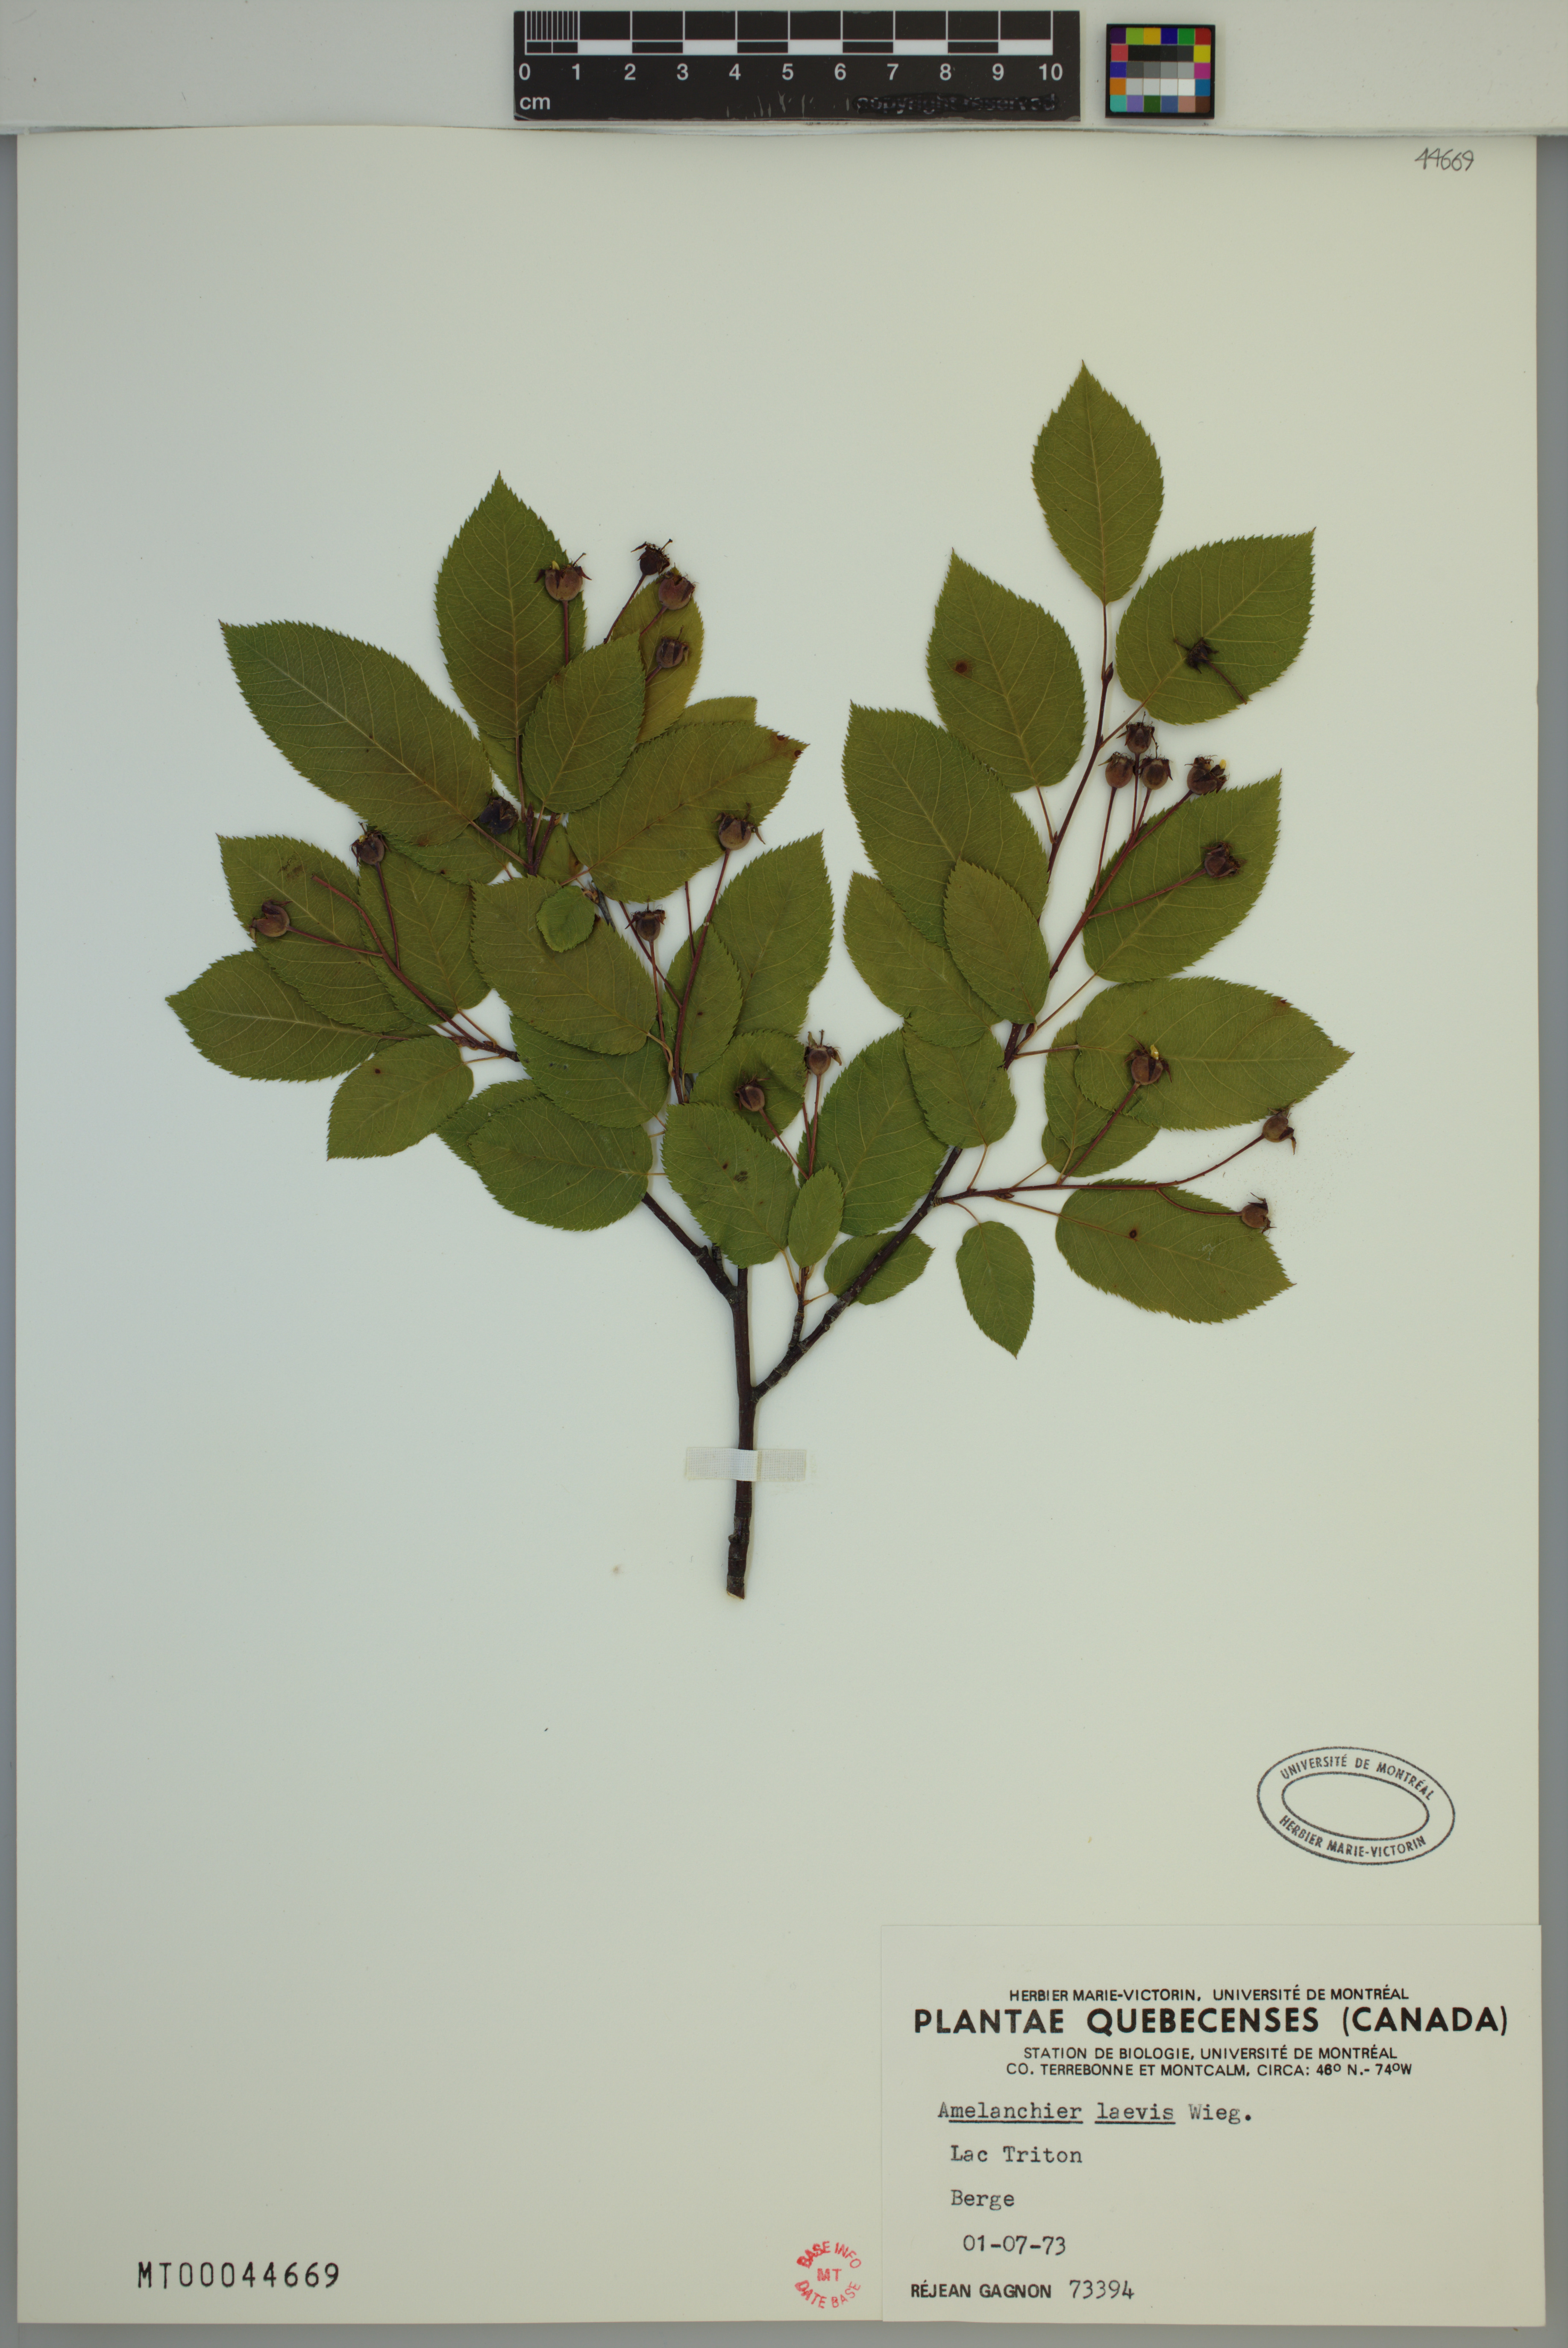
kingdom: Plantae
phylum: Tracheophyta
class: Magnoliopsida
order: Rosales
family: Rosaceae
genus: Amelanchier
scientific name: Amelanchier laevis
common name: Allegheny serviceberry
